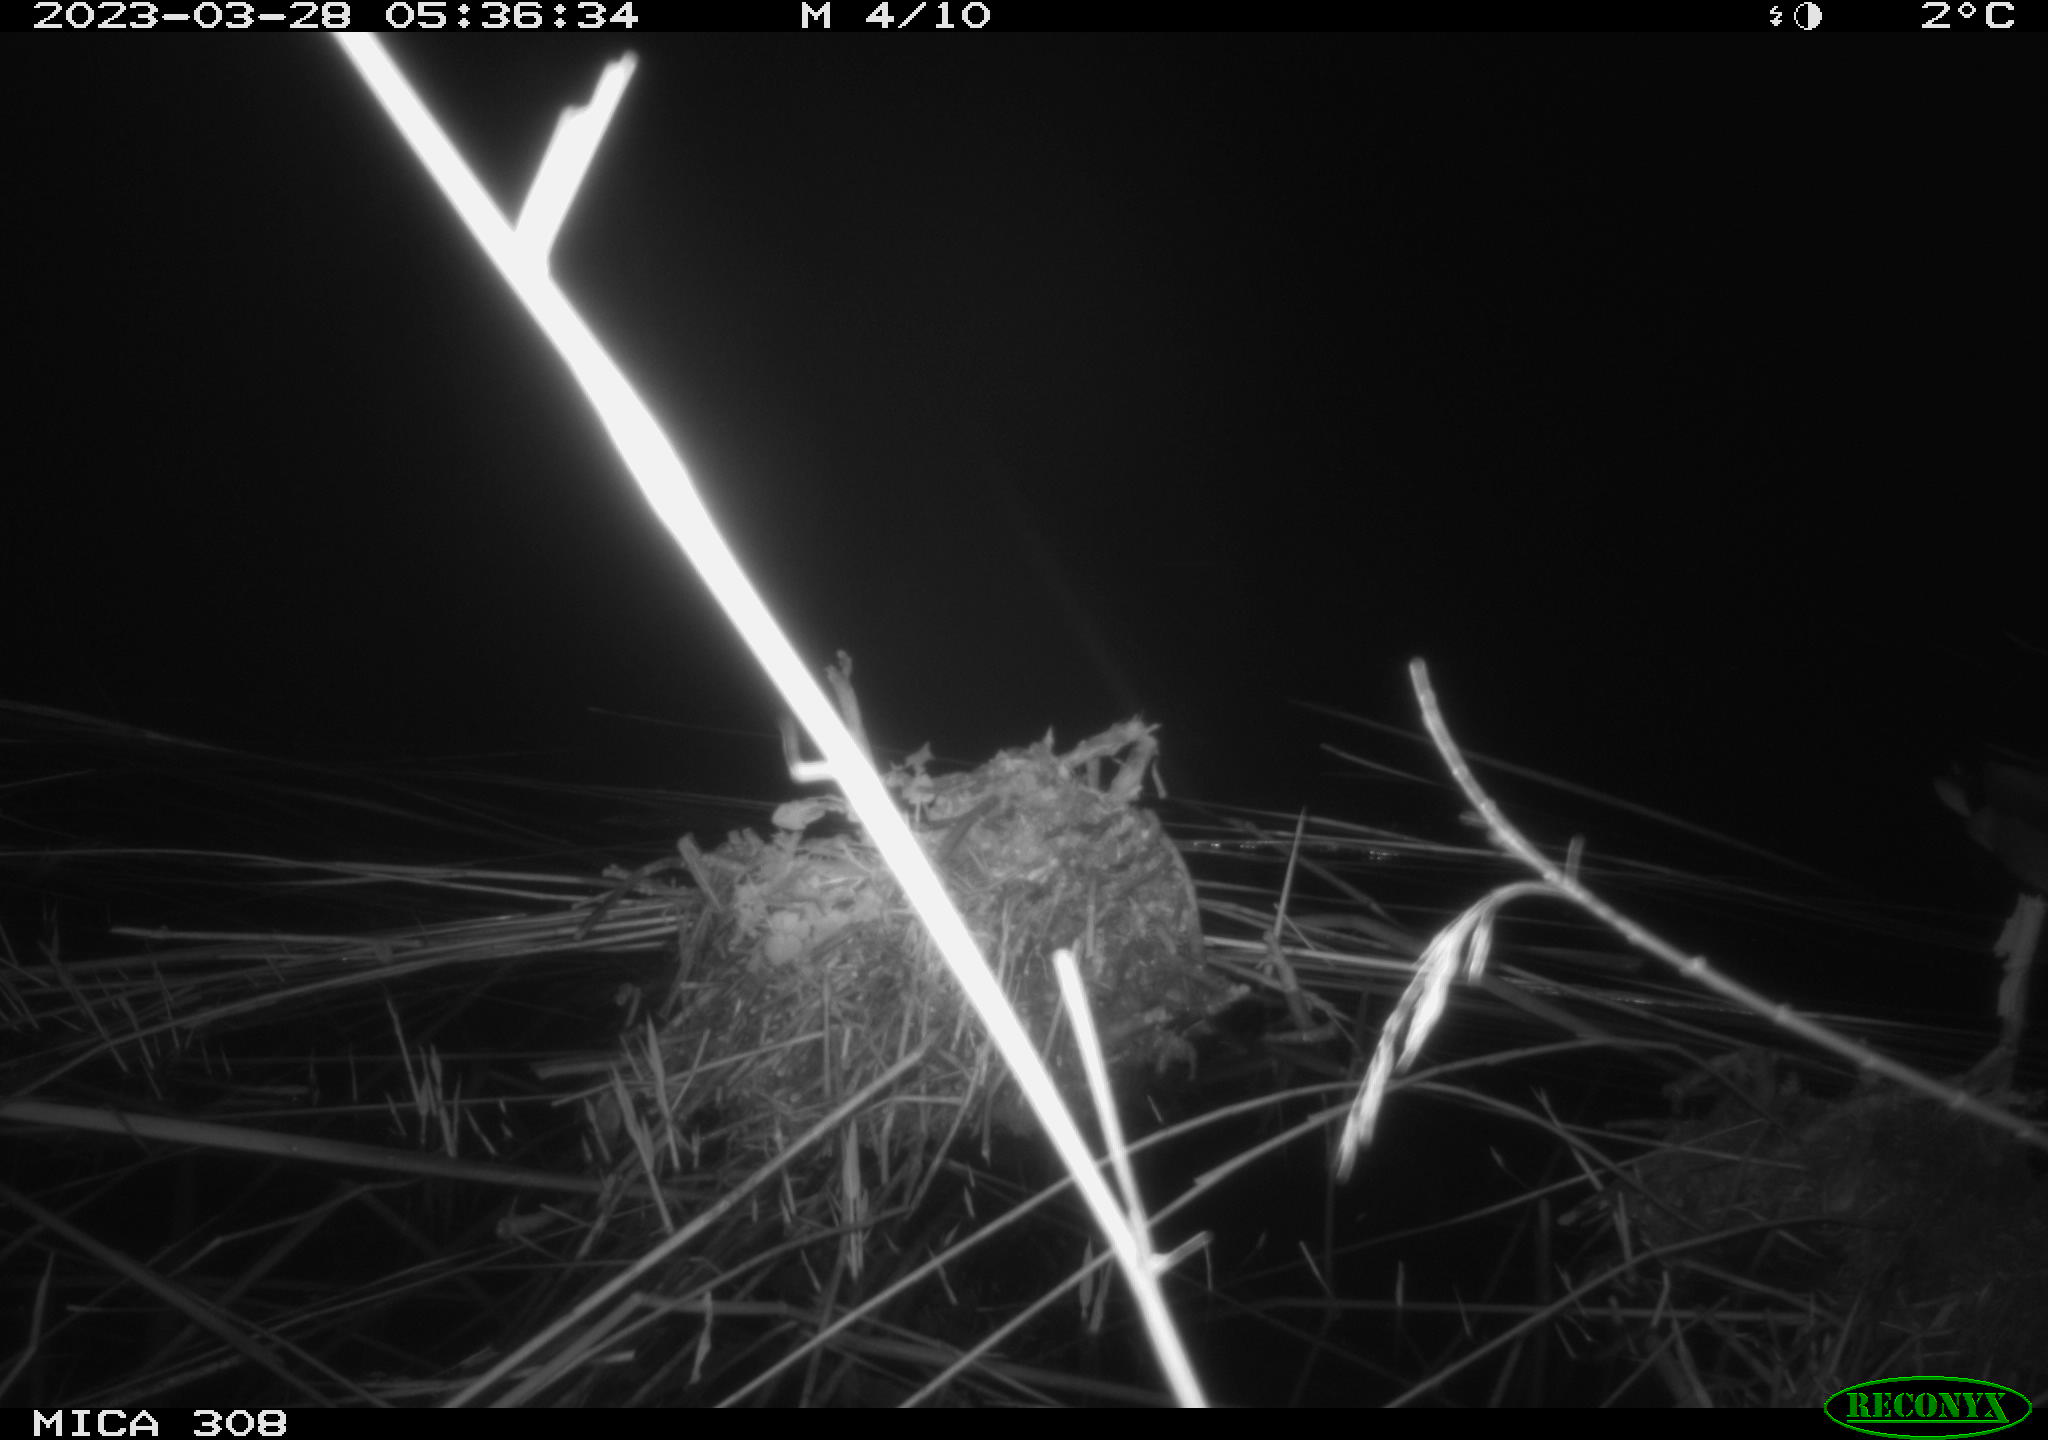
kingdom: Animalia
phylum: Chordata
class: Aves
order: Anseriformes
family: Anatidae
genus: Anas
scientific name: Anas
